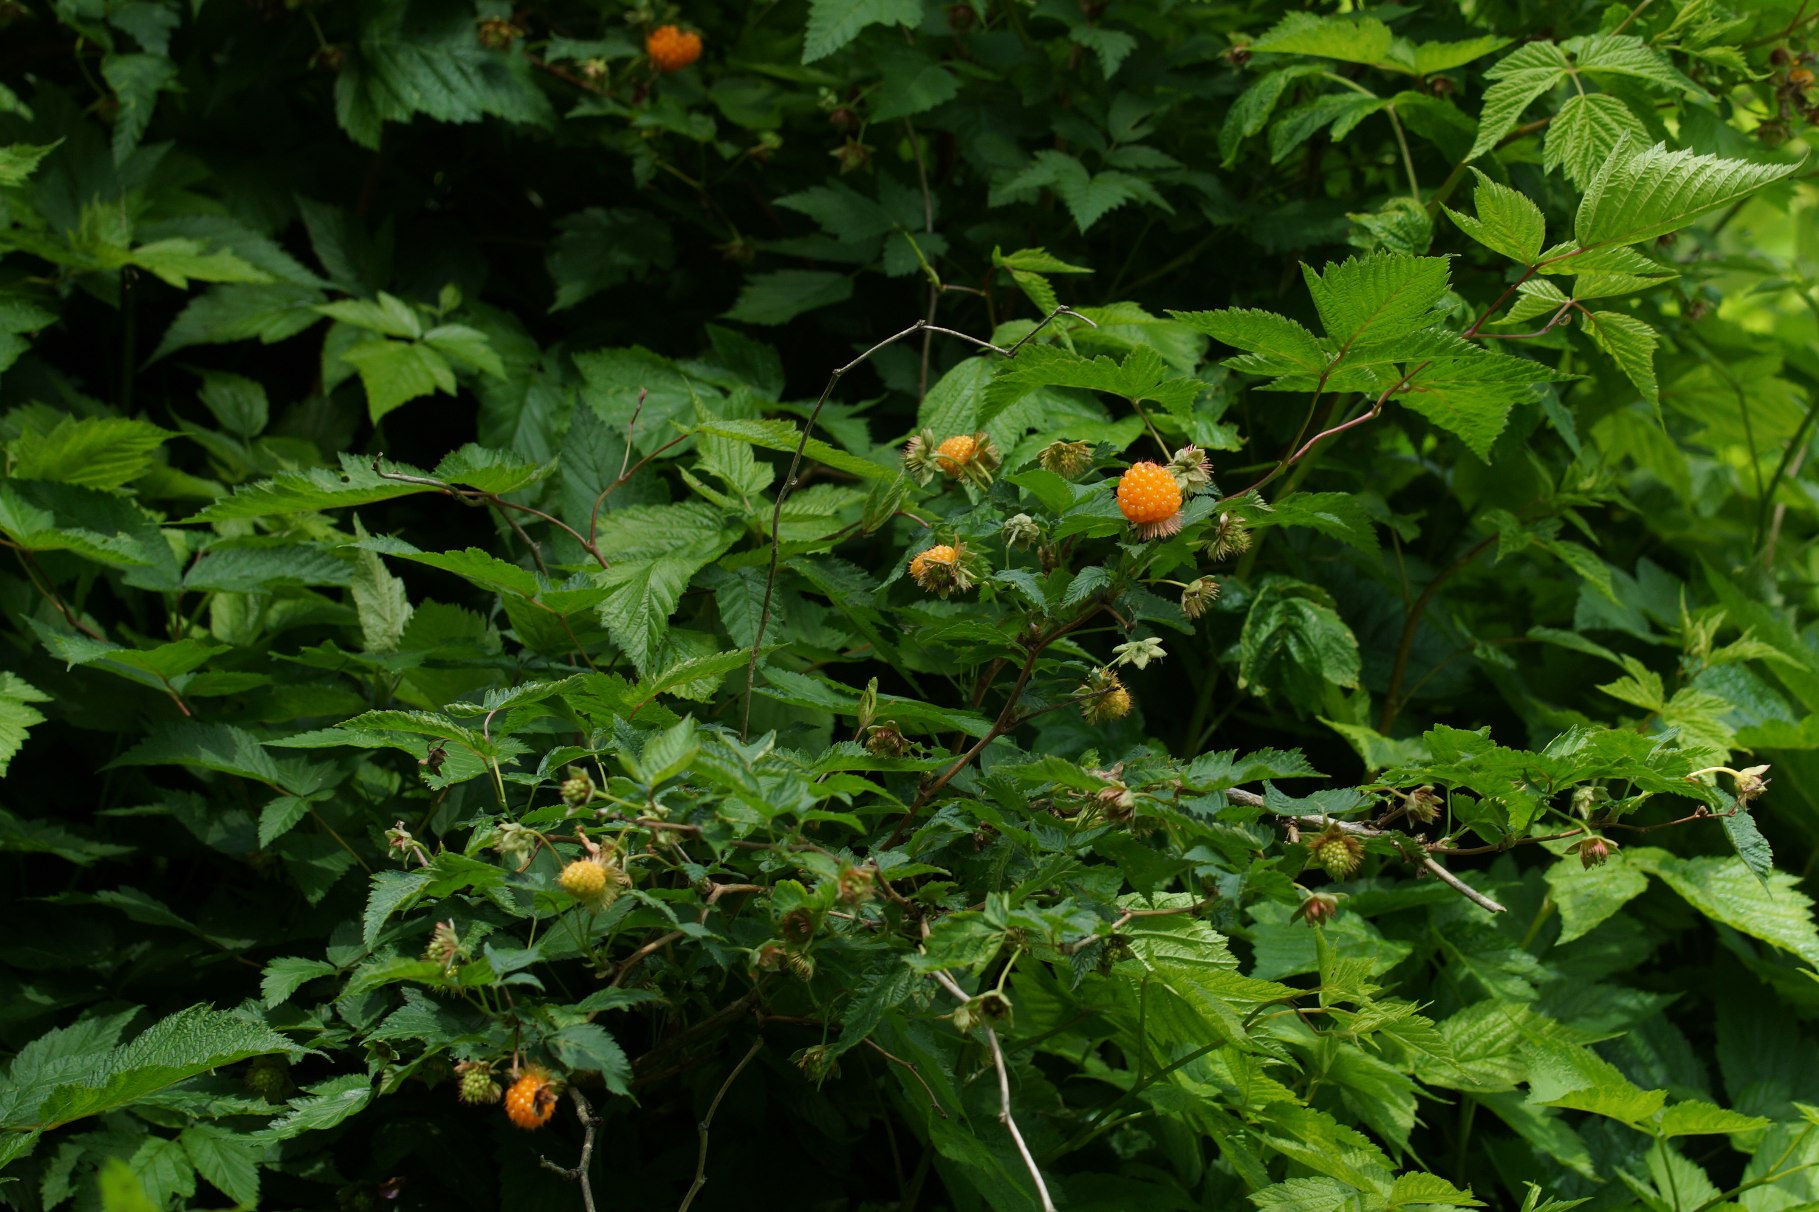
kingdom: Plantae
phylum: Tracheophyta
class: Magnoliopsida
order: Rosales
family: Rosaceae
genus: Rubus
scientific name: Rubus spectabilis
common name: Laksebær
